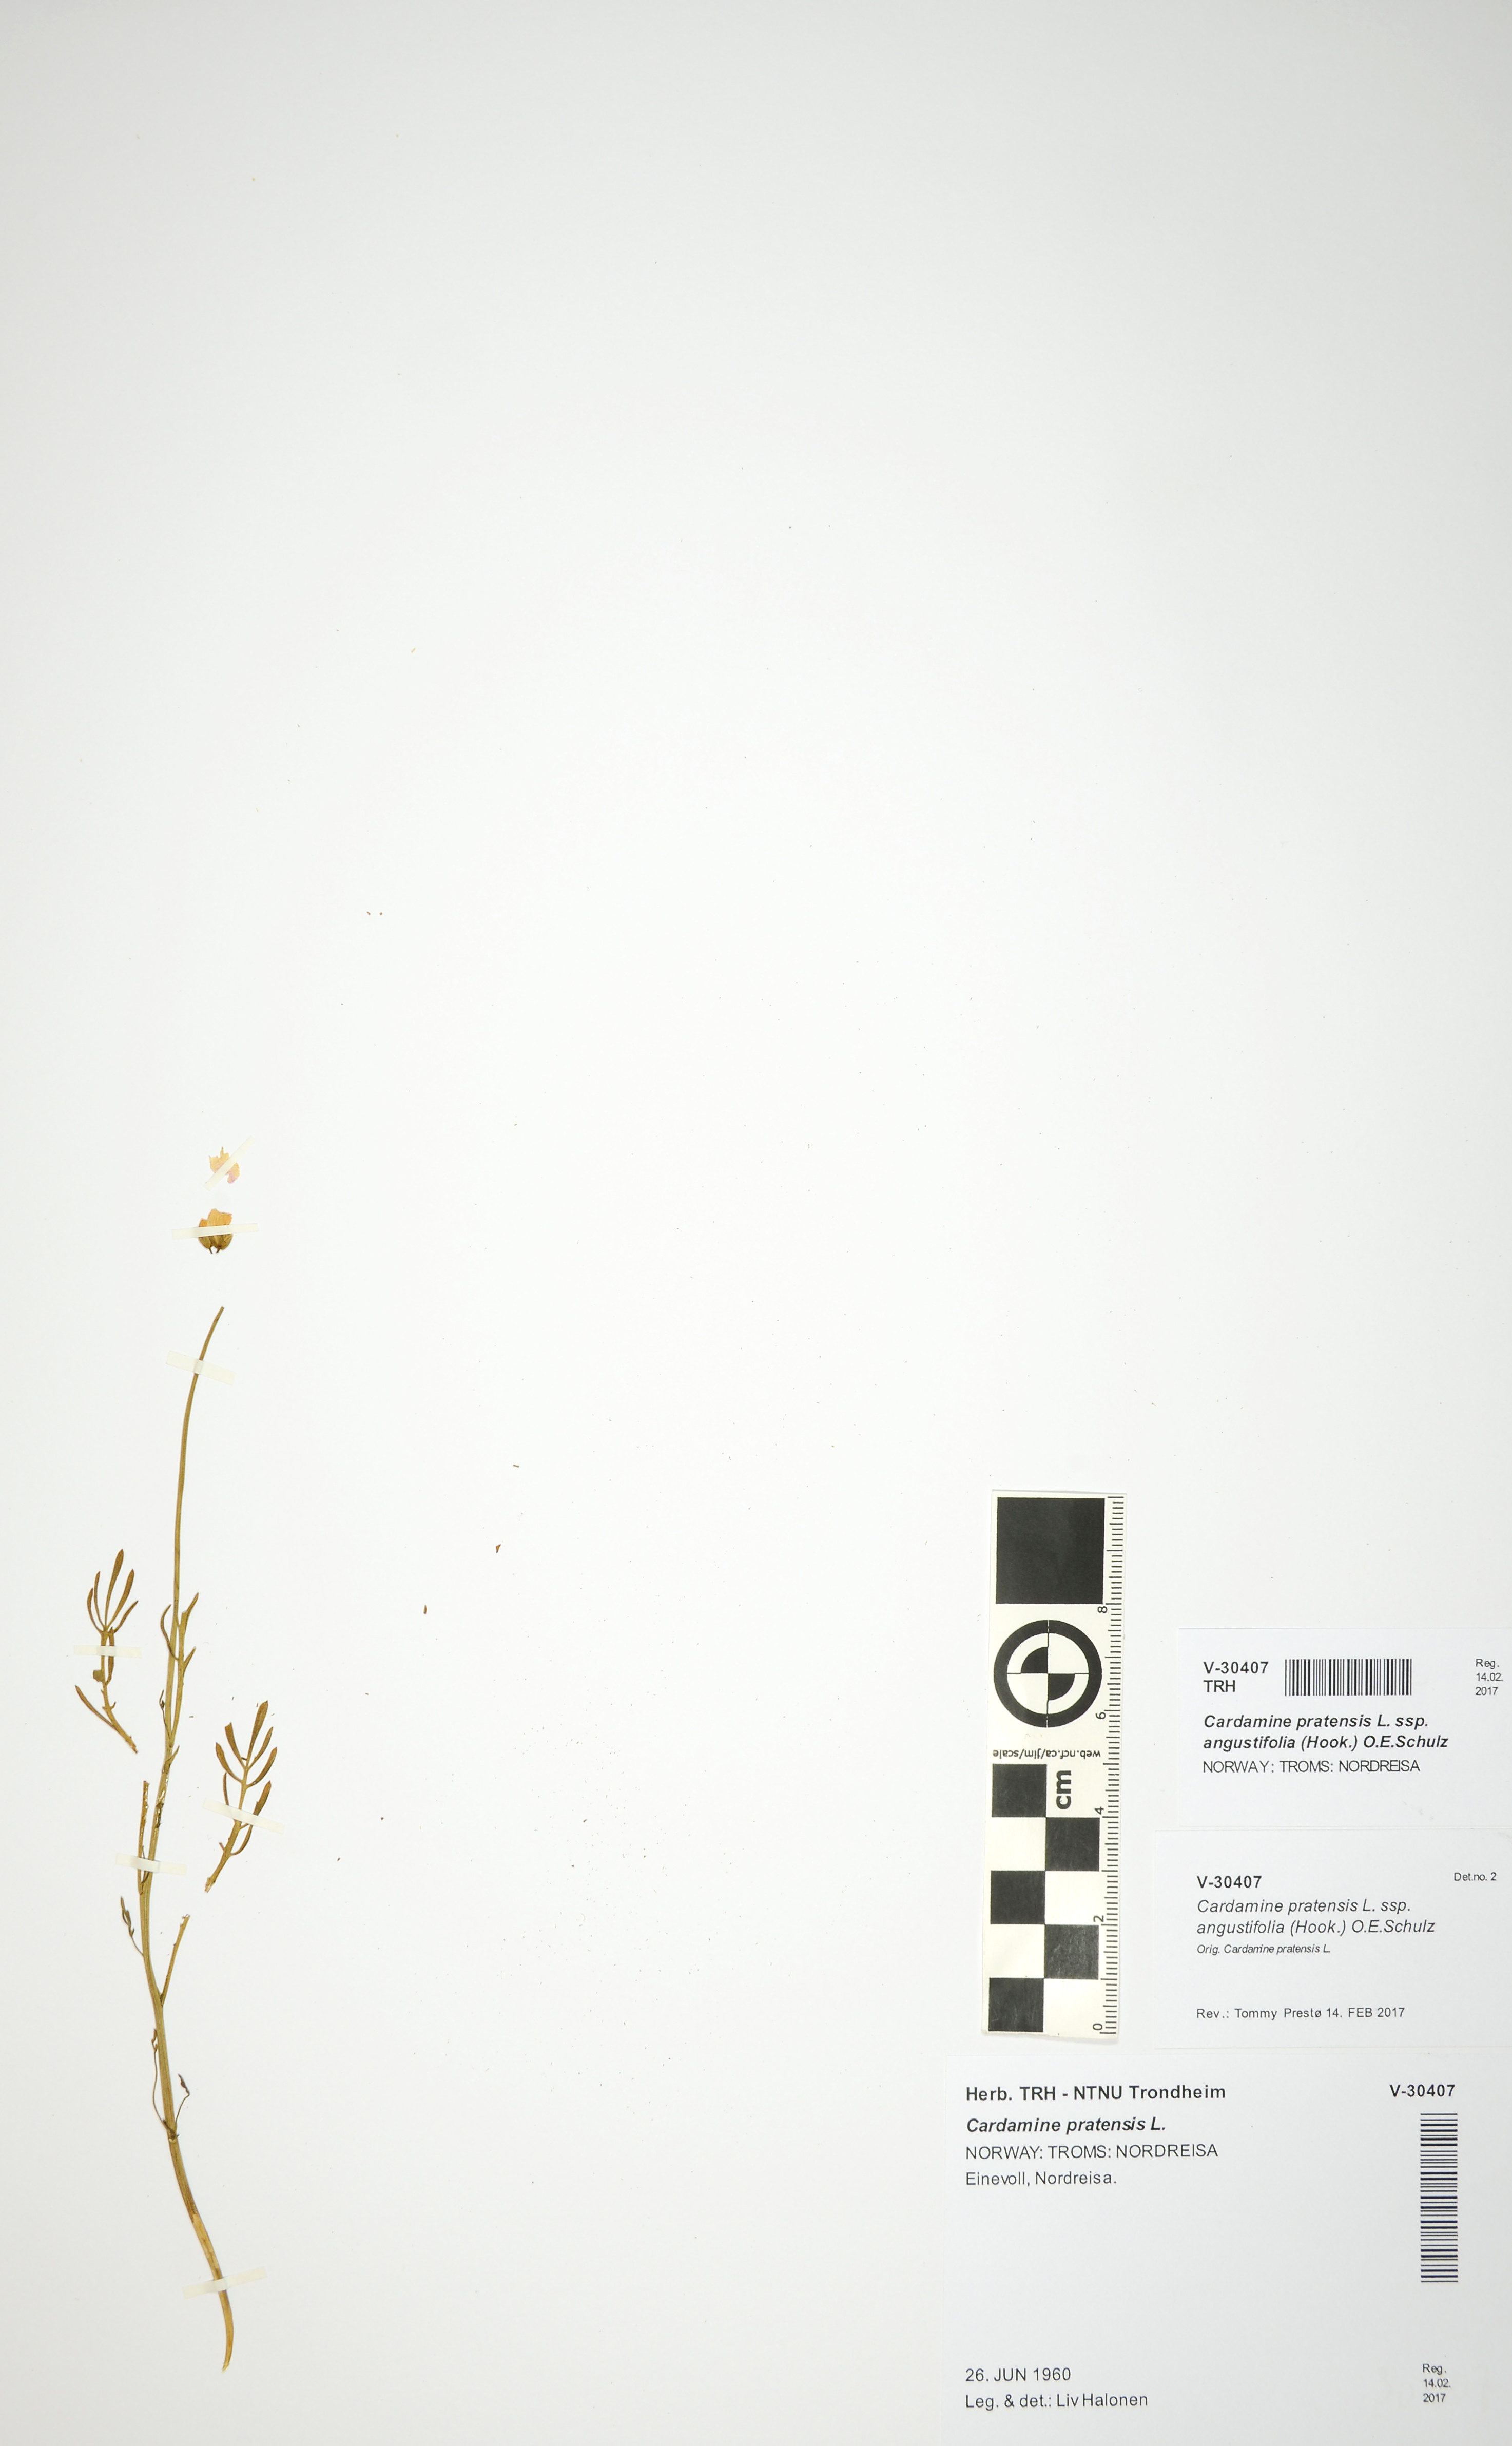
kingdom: Plantae
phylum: Tracheophyta
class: Magnoliopsida
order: Brassicales
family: Brassicaceae
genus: Cardamine
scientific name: Cardamine nymanii
